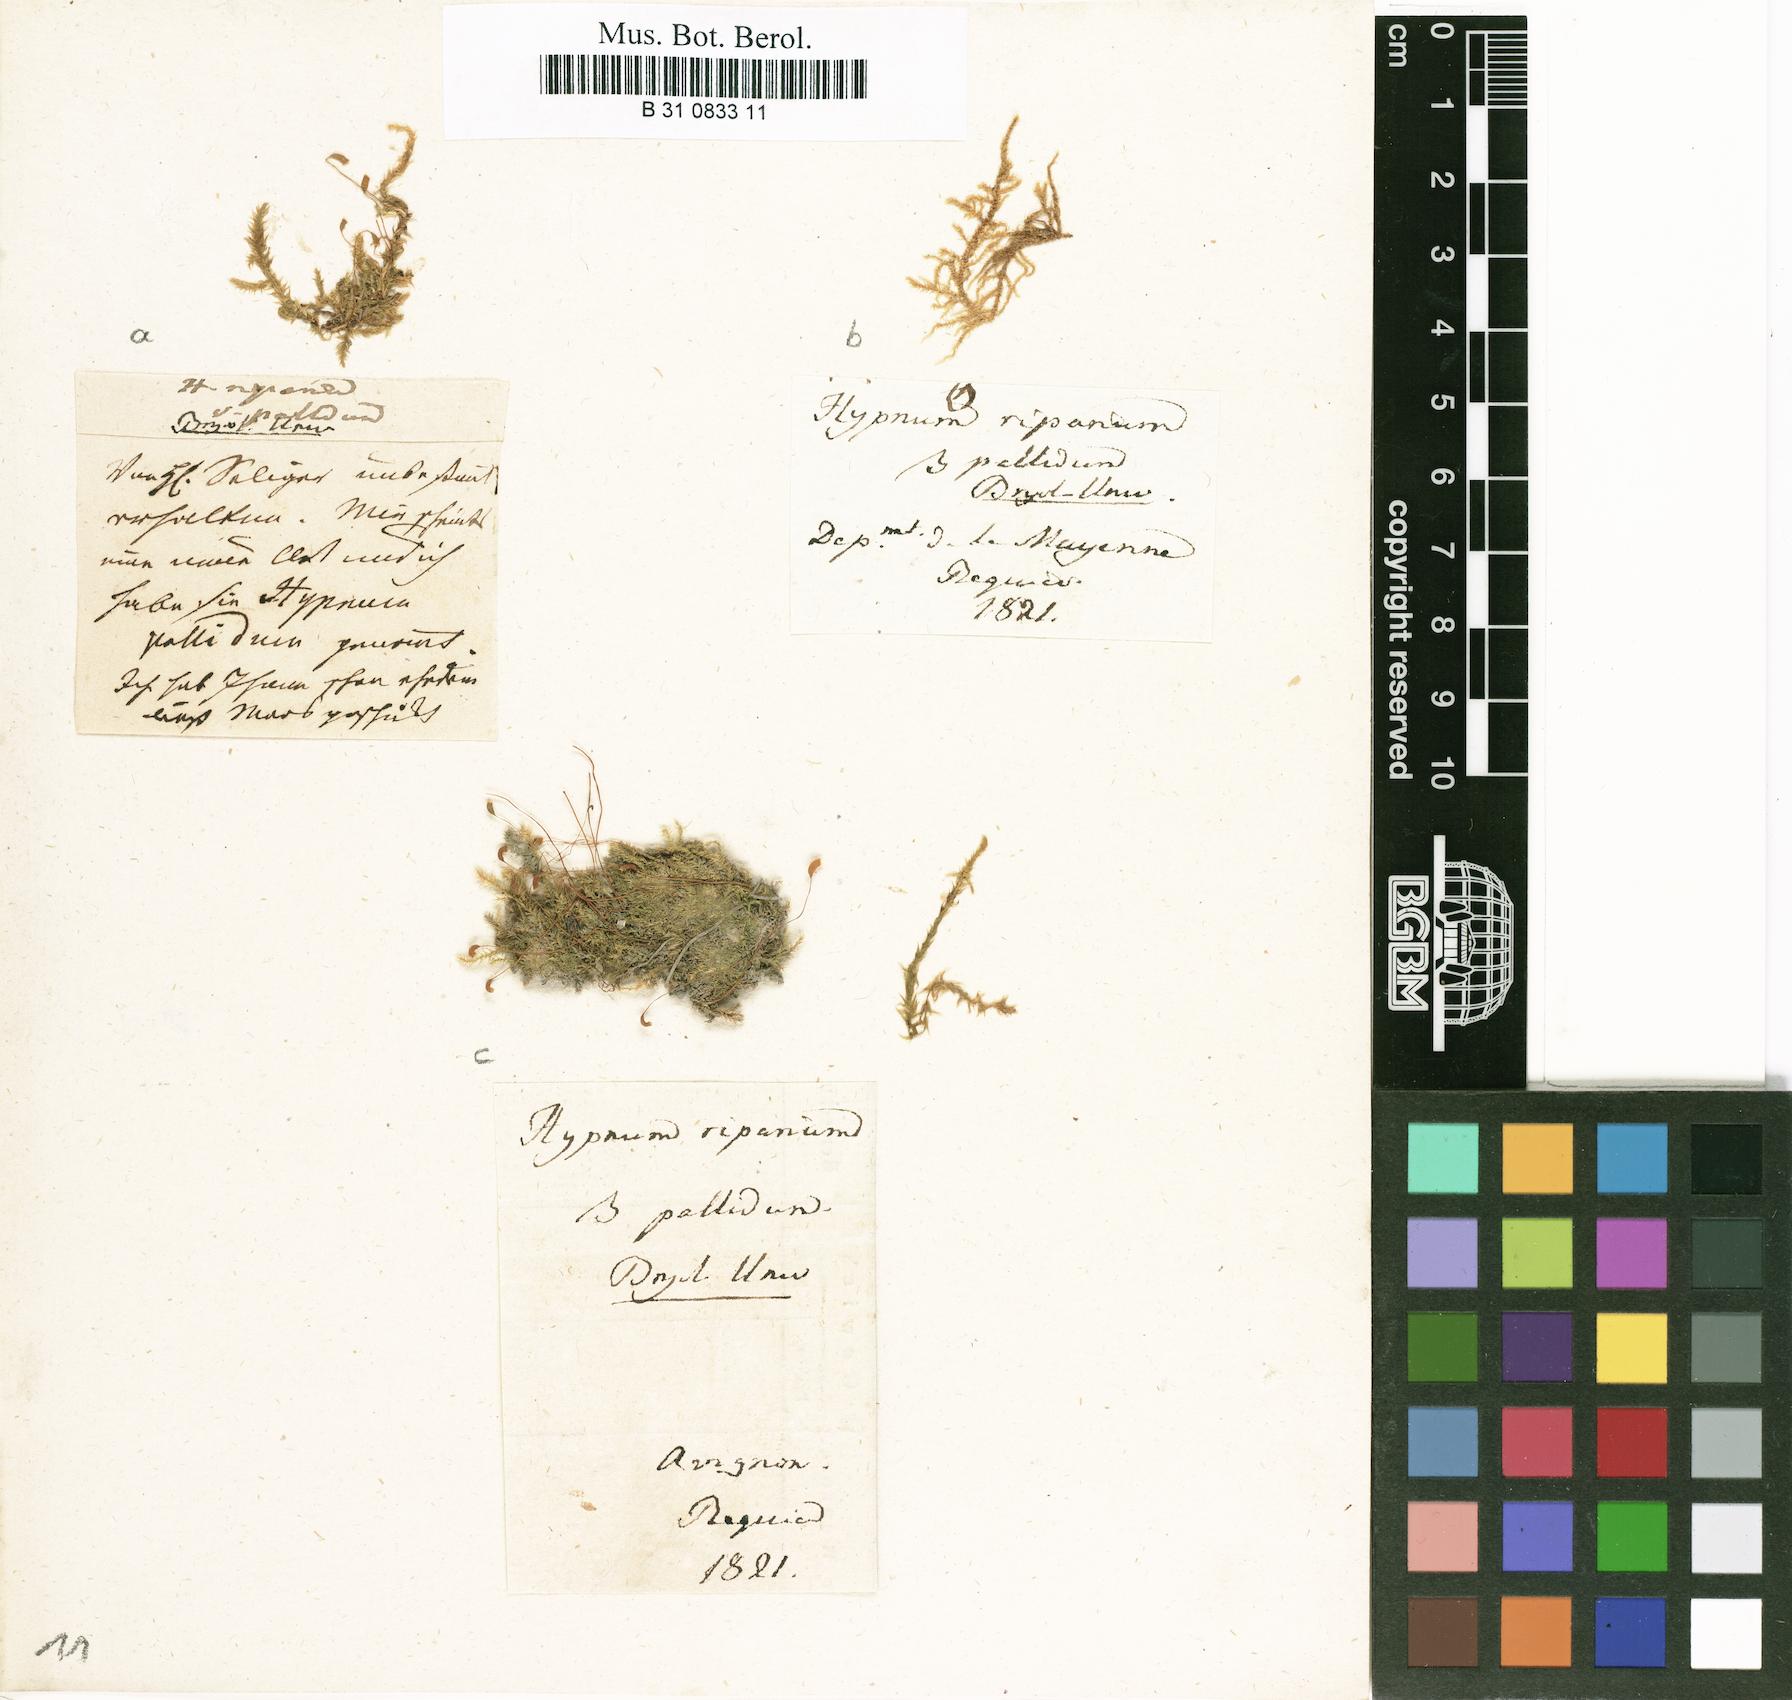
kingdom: Plantae
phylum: Bryophyta
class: Bryopsida
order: Hypnales
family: Amblystegiaceae
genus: Leptodictyum
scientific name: Leptodictyum riparium
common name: Riparian feather moss
